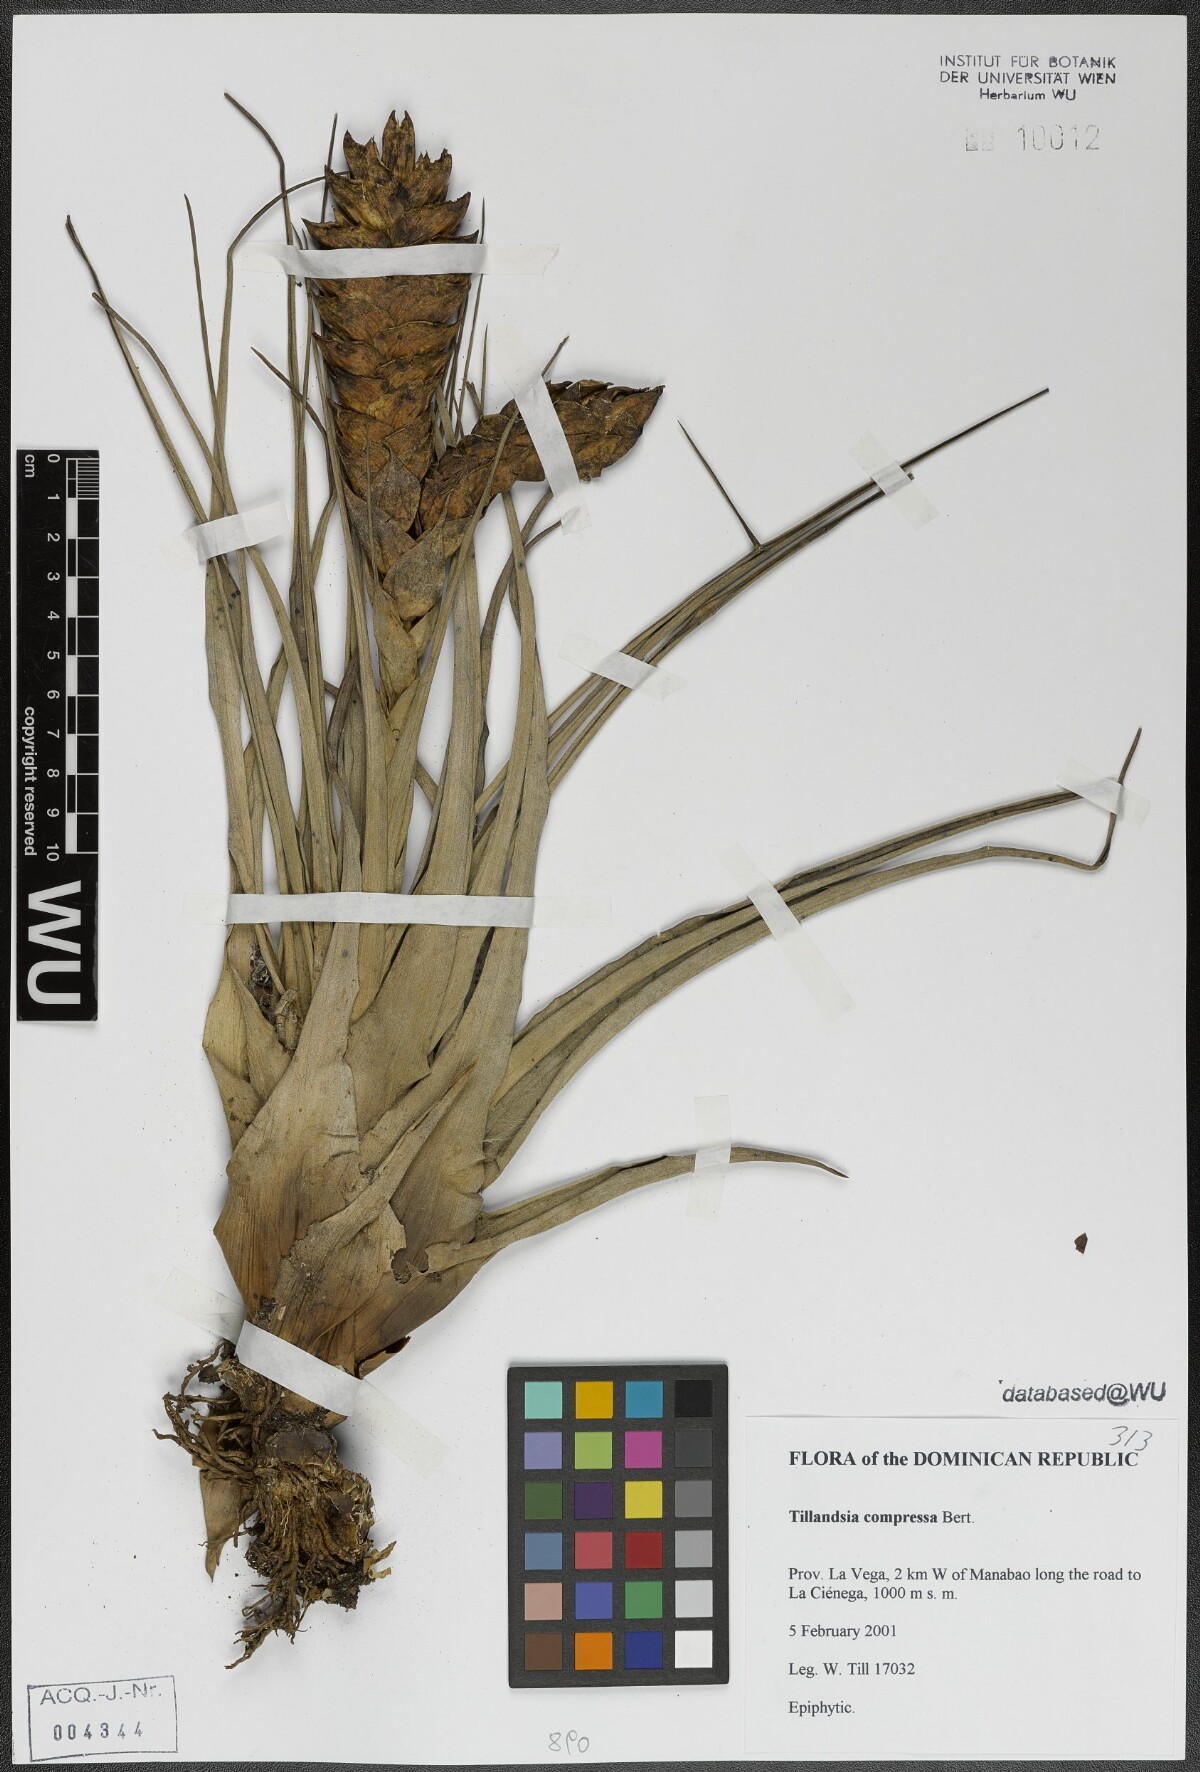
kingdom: Plantae
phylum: Tracheophyta
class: Liliopsida
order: Poales
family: Bromeliaceae
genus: Tillandsia
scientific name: Tillandsia compressa
